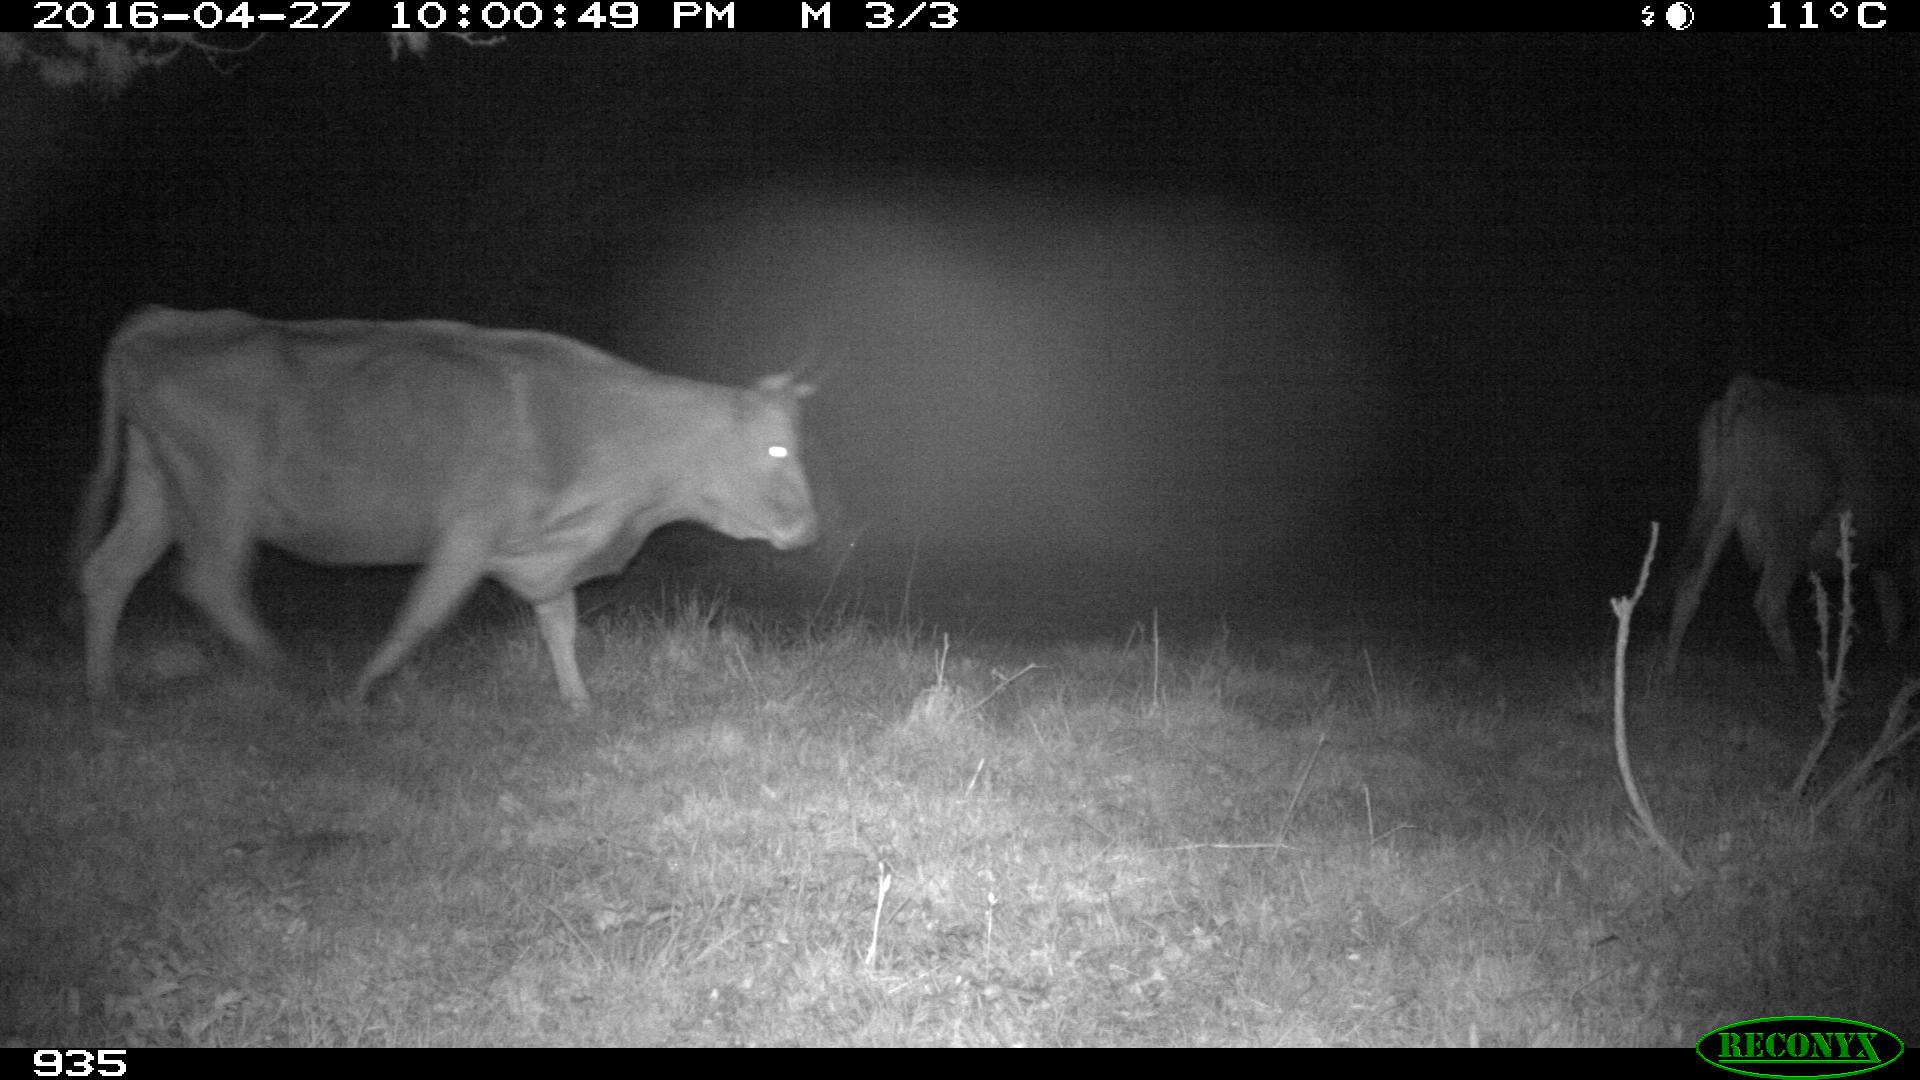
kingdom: Animalia
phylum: Chordata
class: Mammalia
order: Artiodactyla
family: Bovidae
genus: Bos
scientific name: Bos taurus
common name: Domesticated cattle
